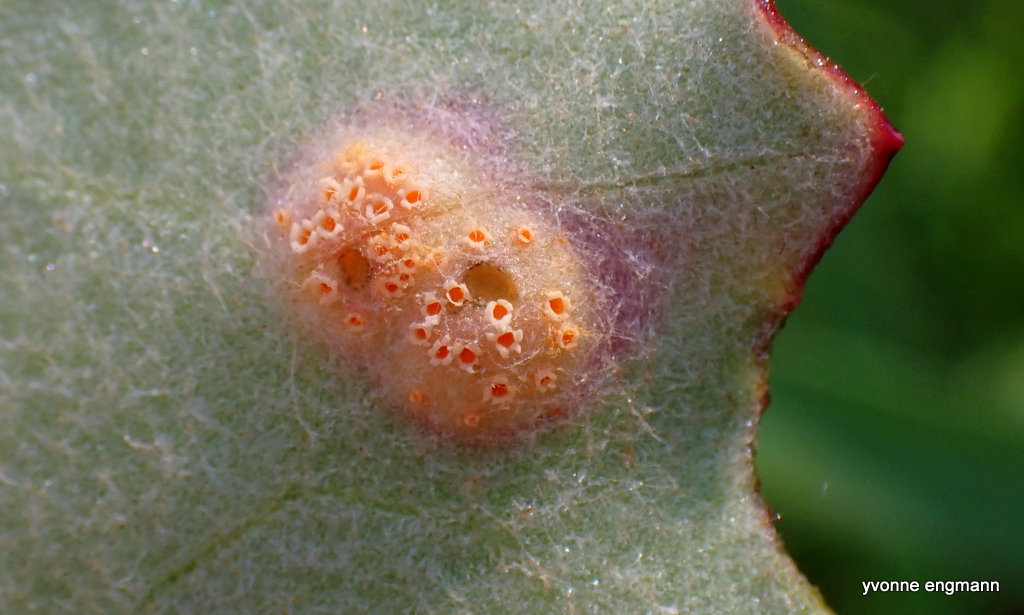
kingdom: Fungi
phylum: Basidiomycota
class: Pucciniomycetes
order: Pucciniales
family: Pucciniaceae
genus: Puccinia
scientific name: Puccinia poarum
